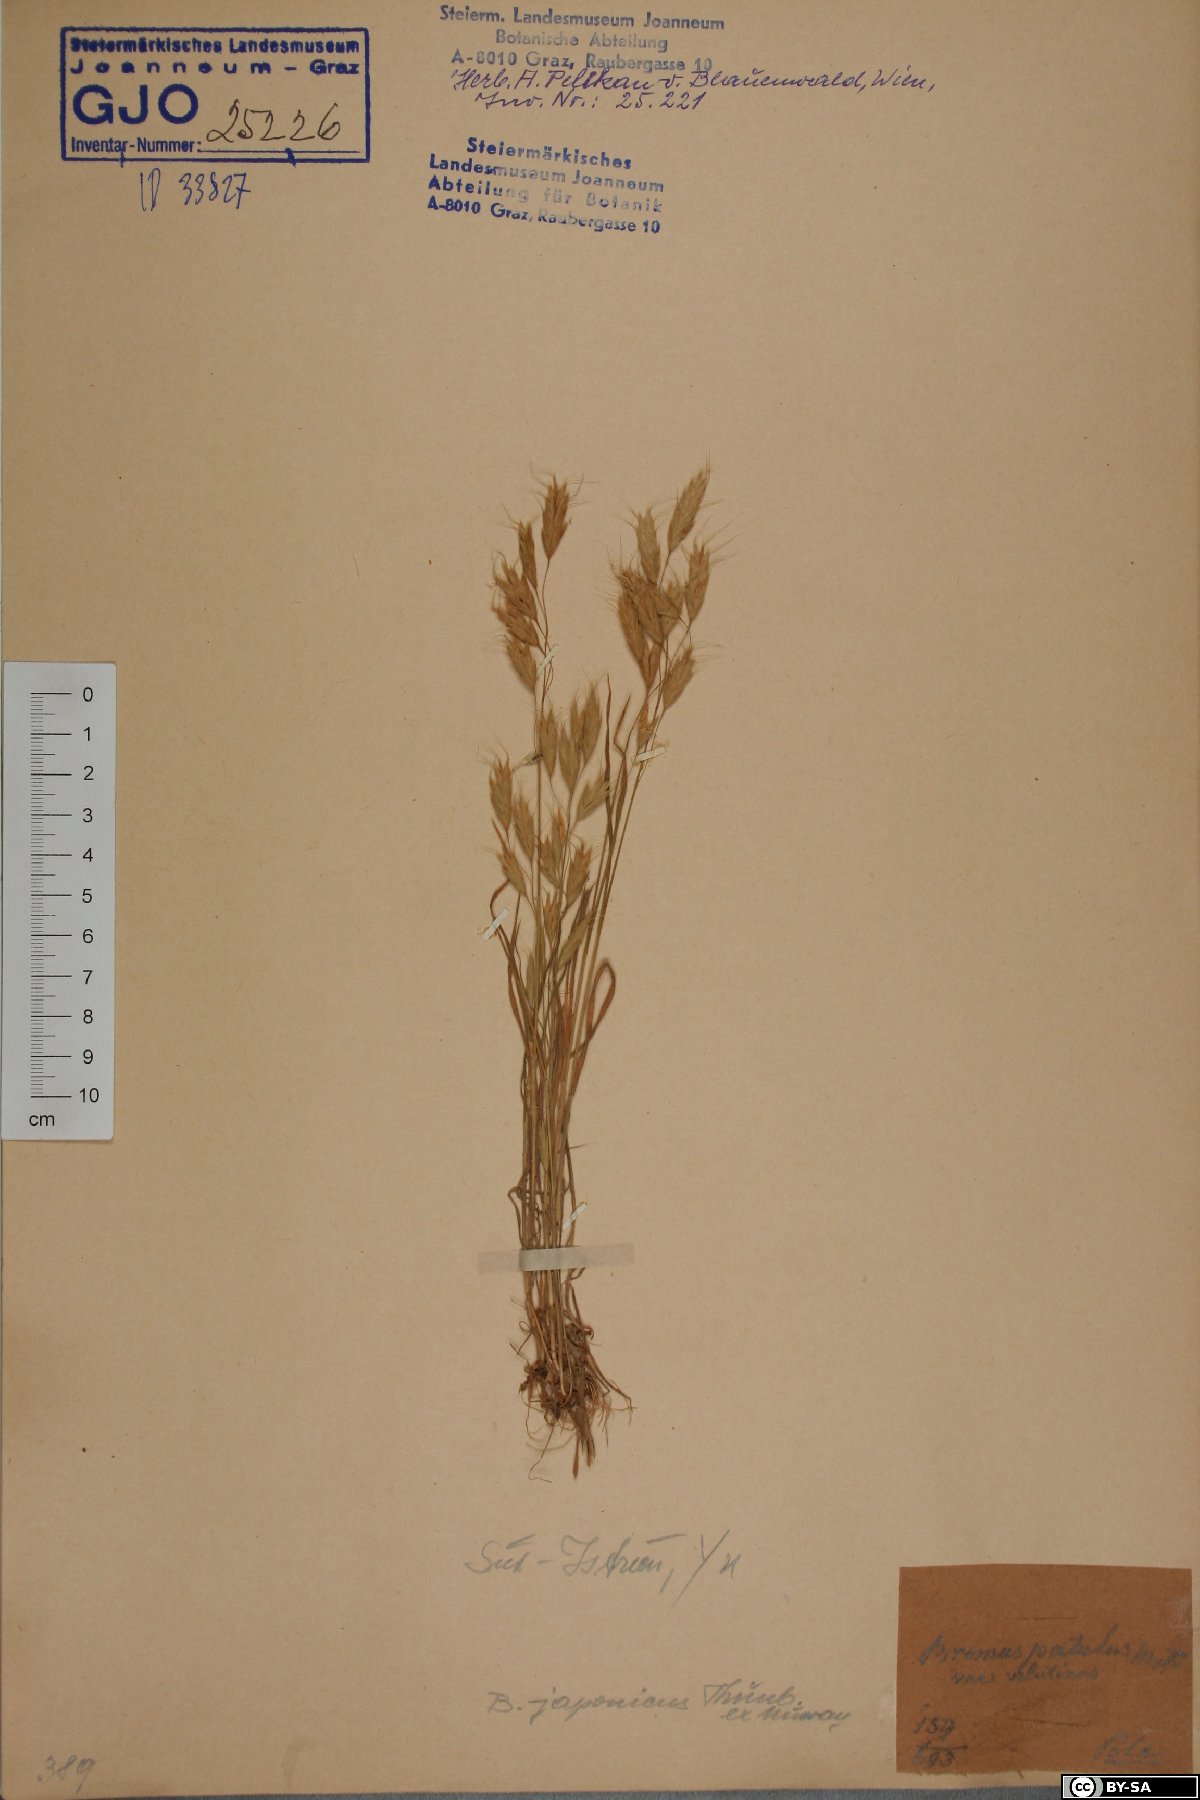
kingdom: Plantae
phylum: Tracheophyta
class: Liliopsida
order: Poales
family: Poaceae
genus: Bromus
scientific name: Bromus japonicus
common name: Japanese brome
